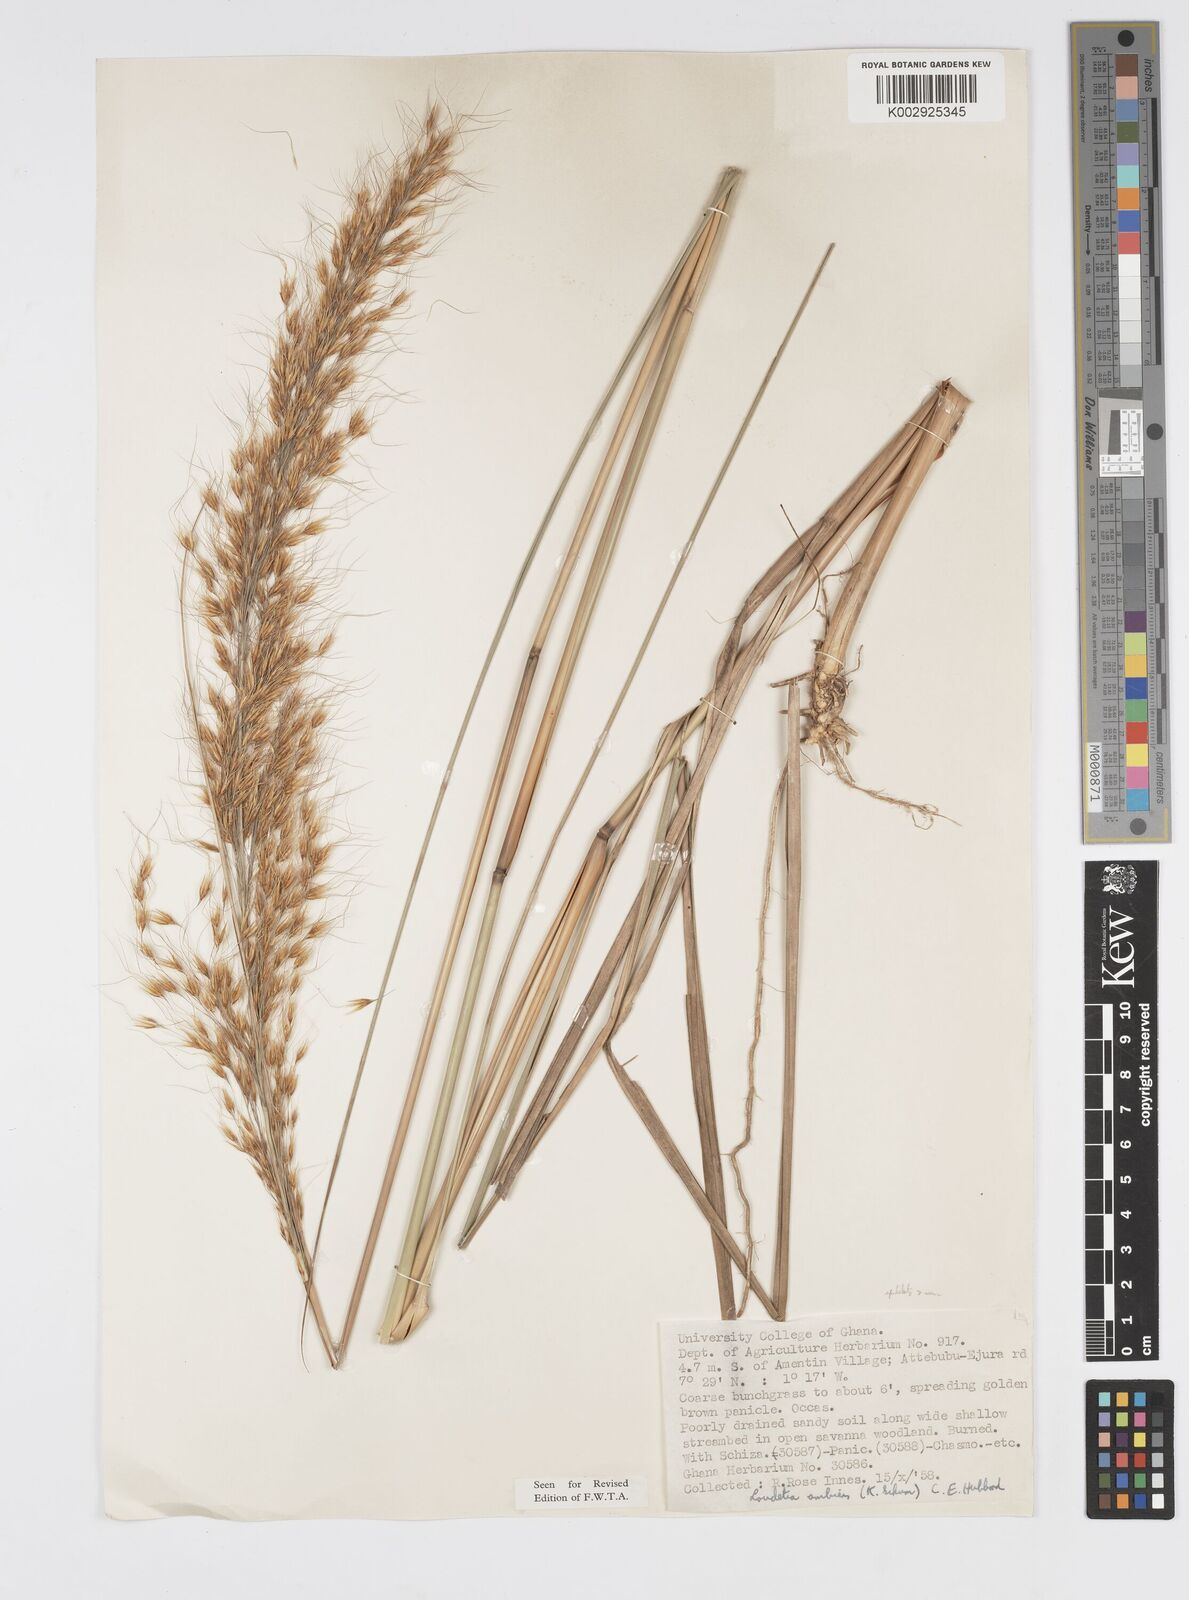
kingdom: Plantae
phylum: Tracheophyta
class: Liliopsida
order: Poales
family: Poaceae
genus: Loudetiopsis
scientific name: Loudetiopsis ambiens
